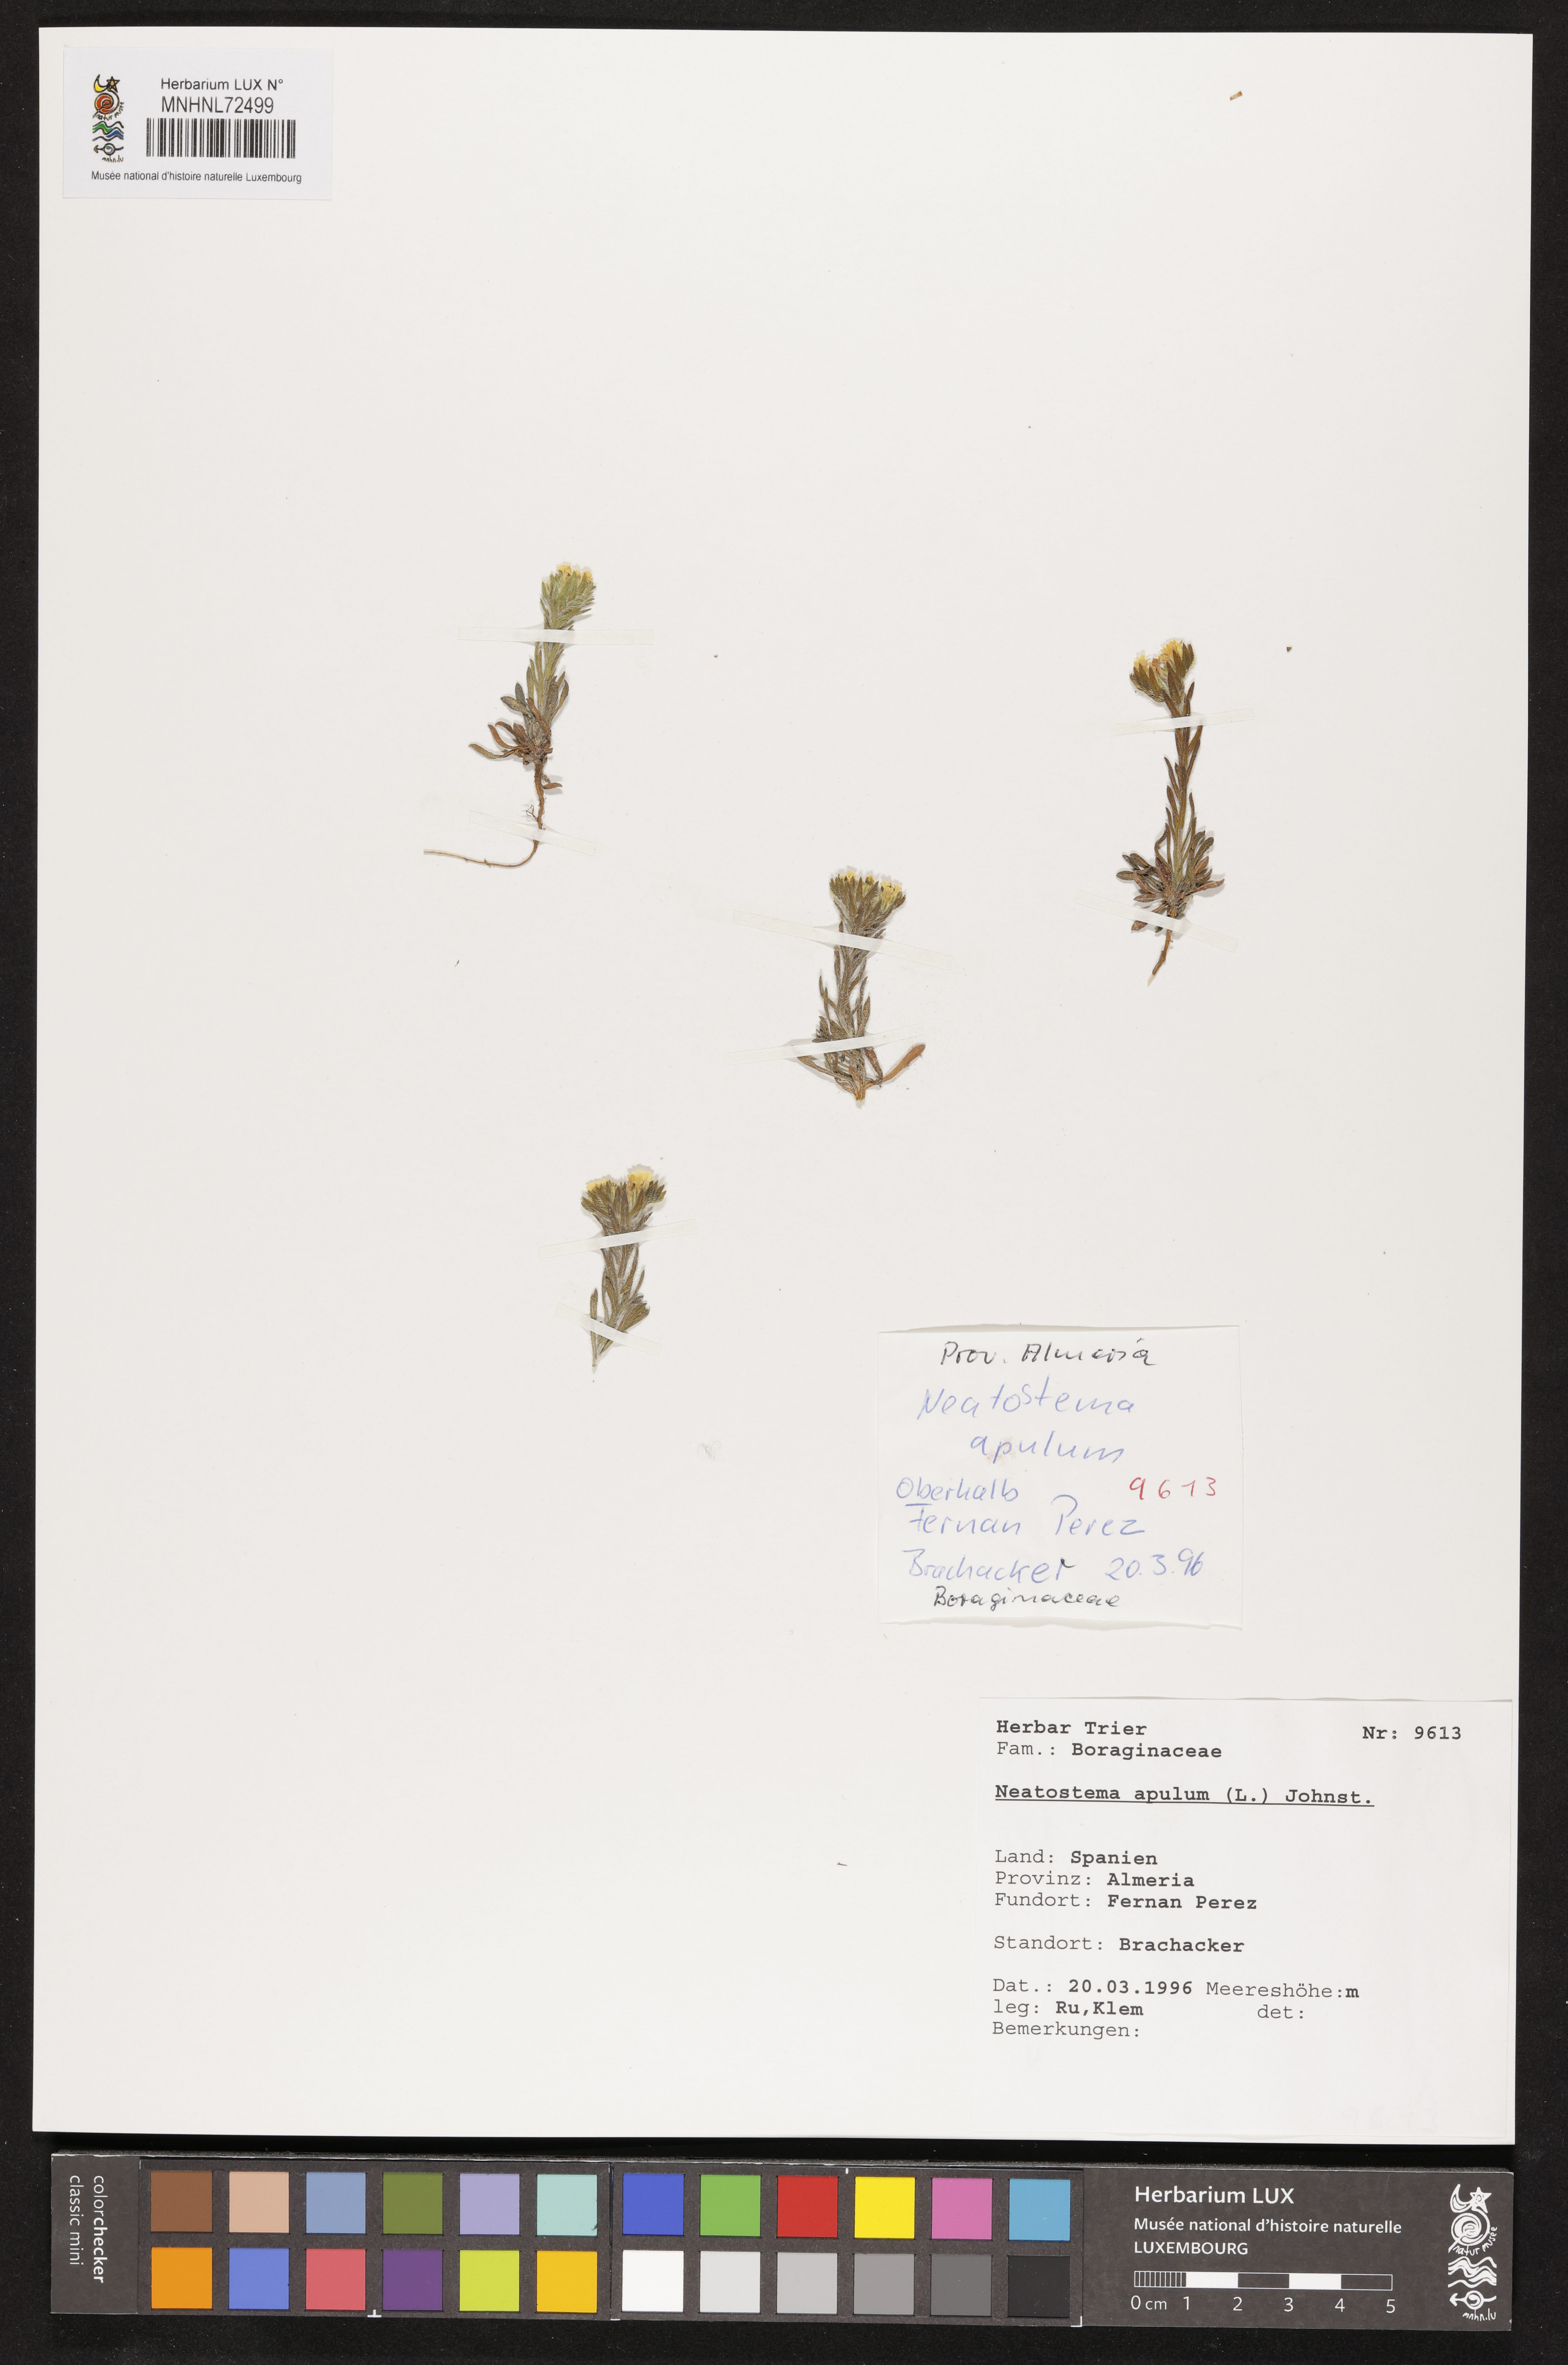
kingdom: Plantae
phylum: Tracheophyta
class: Magnoliopsida
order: Boraginales
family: Boraginaceae
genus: Neatostema
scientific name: Neatostema apulum
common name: Hairy sheepweed
